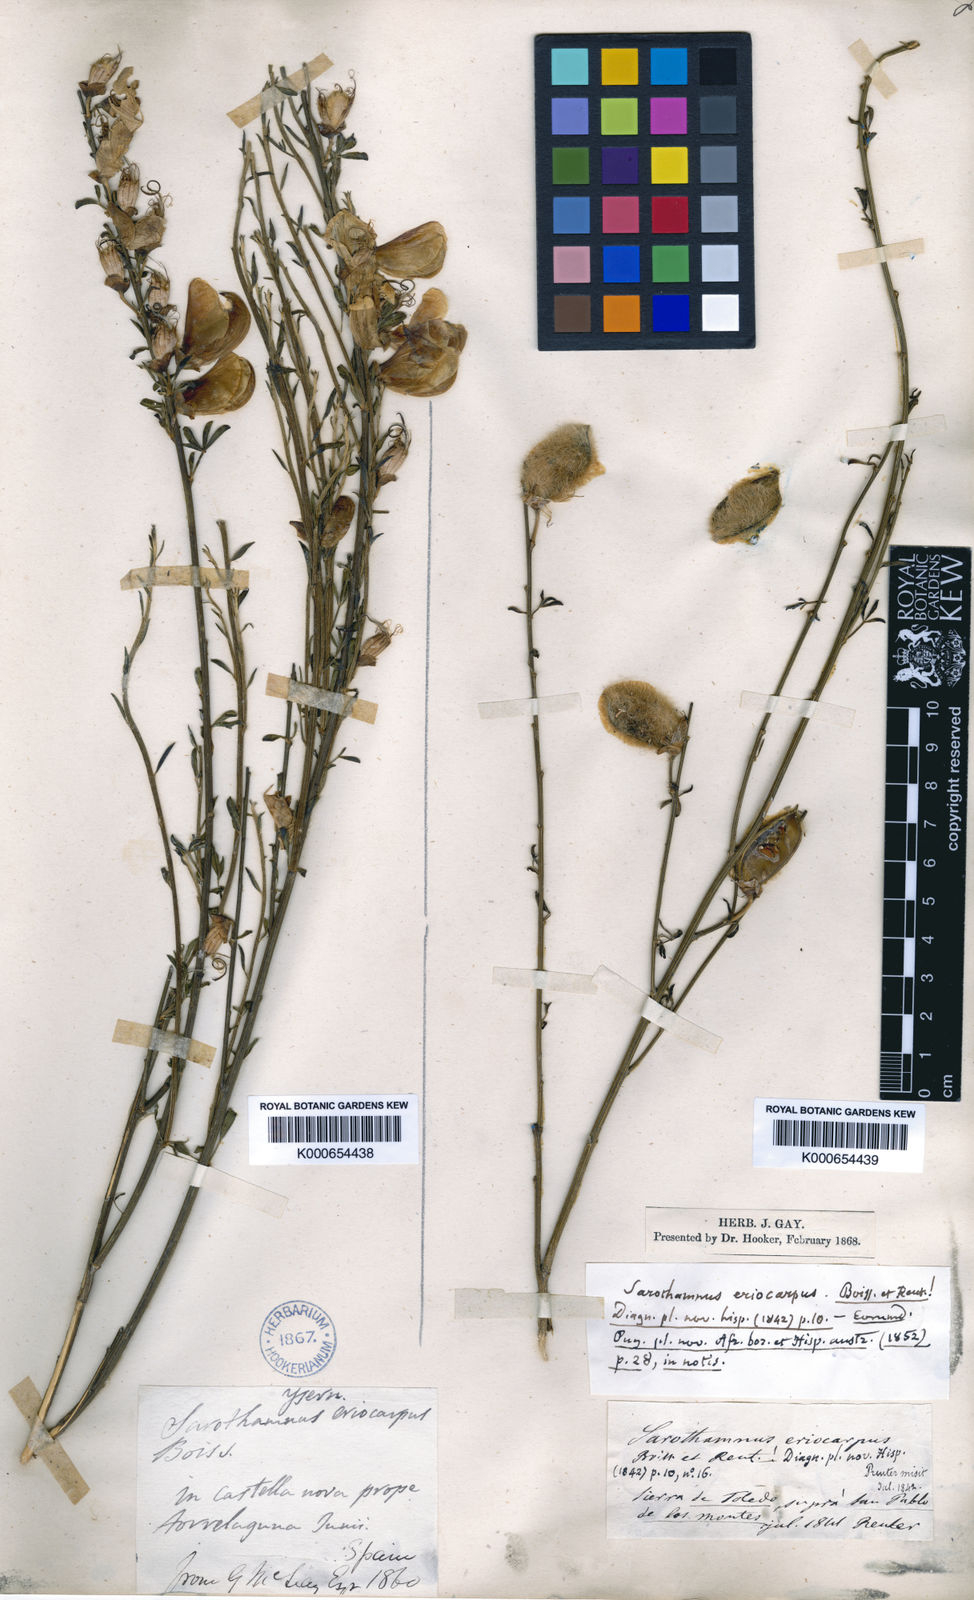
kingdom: Plantae
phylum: Tracheophyta
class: Magnoliopsida
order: Fabales
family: Fabaceae
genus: Cytisus
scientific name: Cytisus striatus
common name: Hairy-fruited broom
